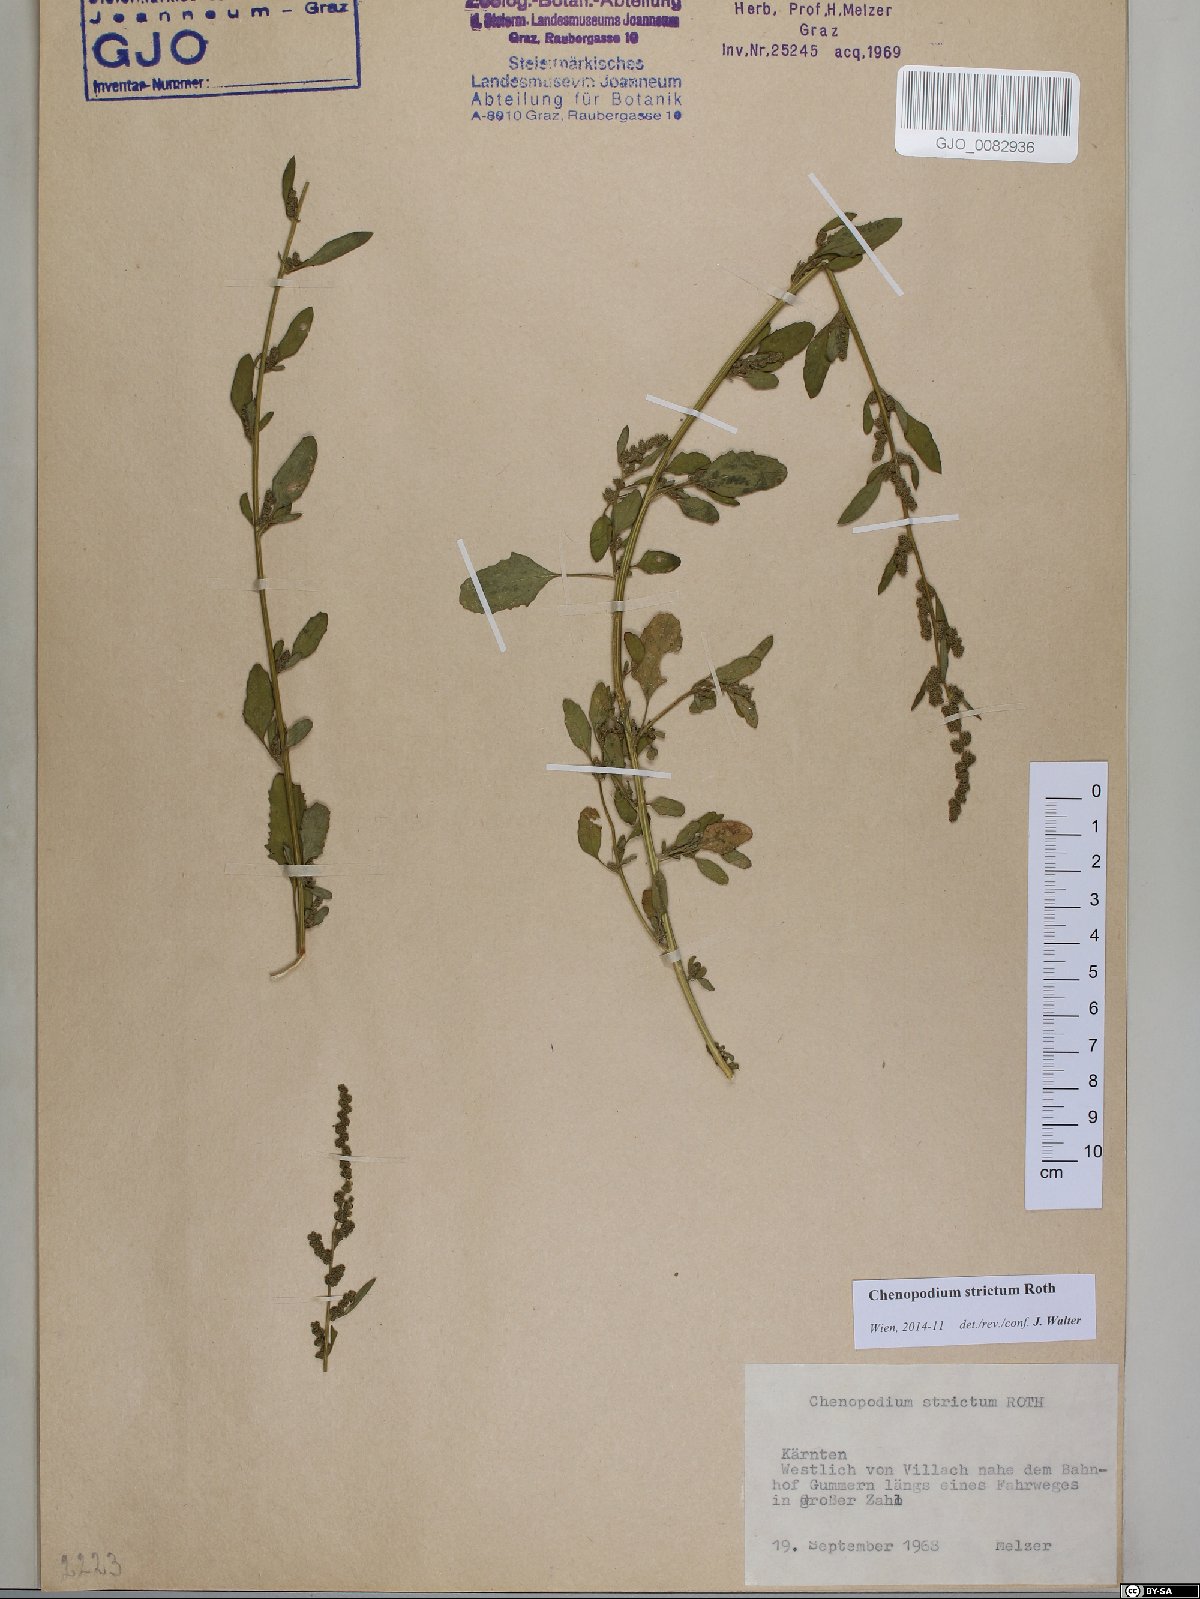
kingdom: Plantae
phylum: Tracheophyta
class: Magnoliopsida
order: Caryophyllales
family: Amaranthaceae
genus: Chenopodium
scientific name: Chenopodium album
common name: Fat-hen
